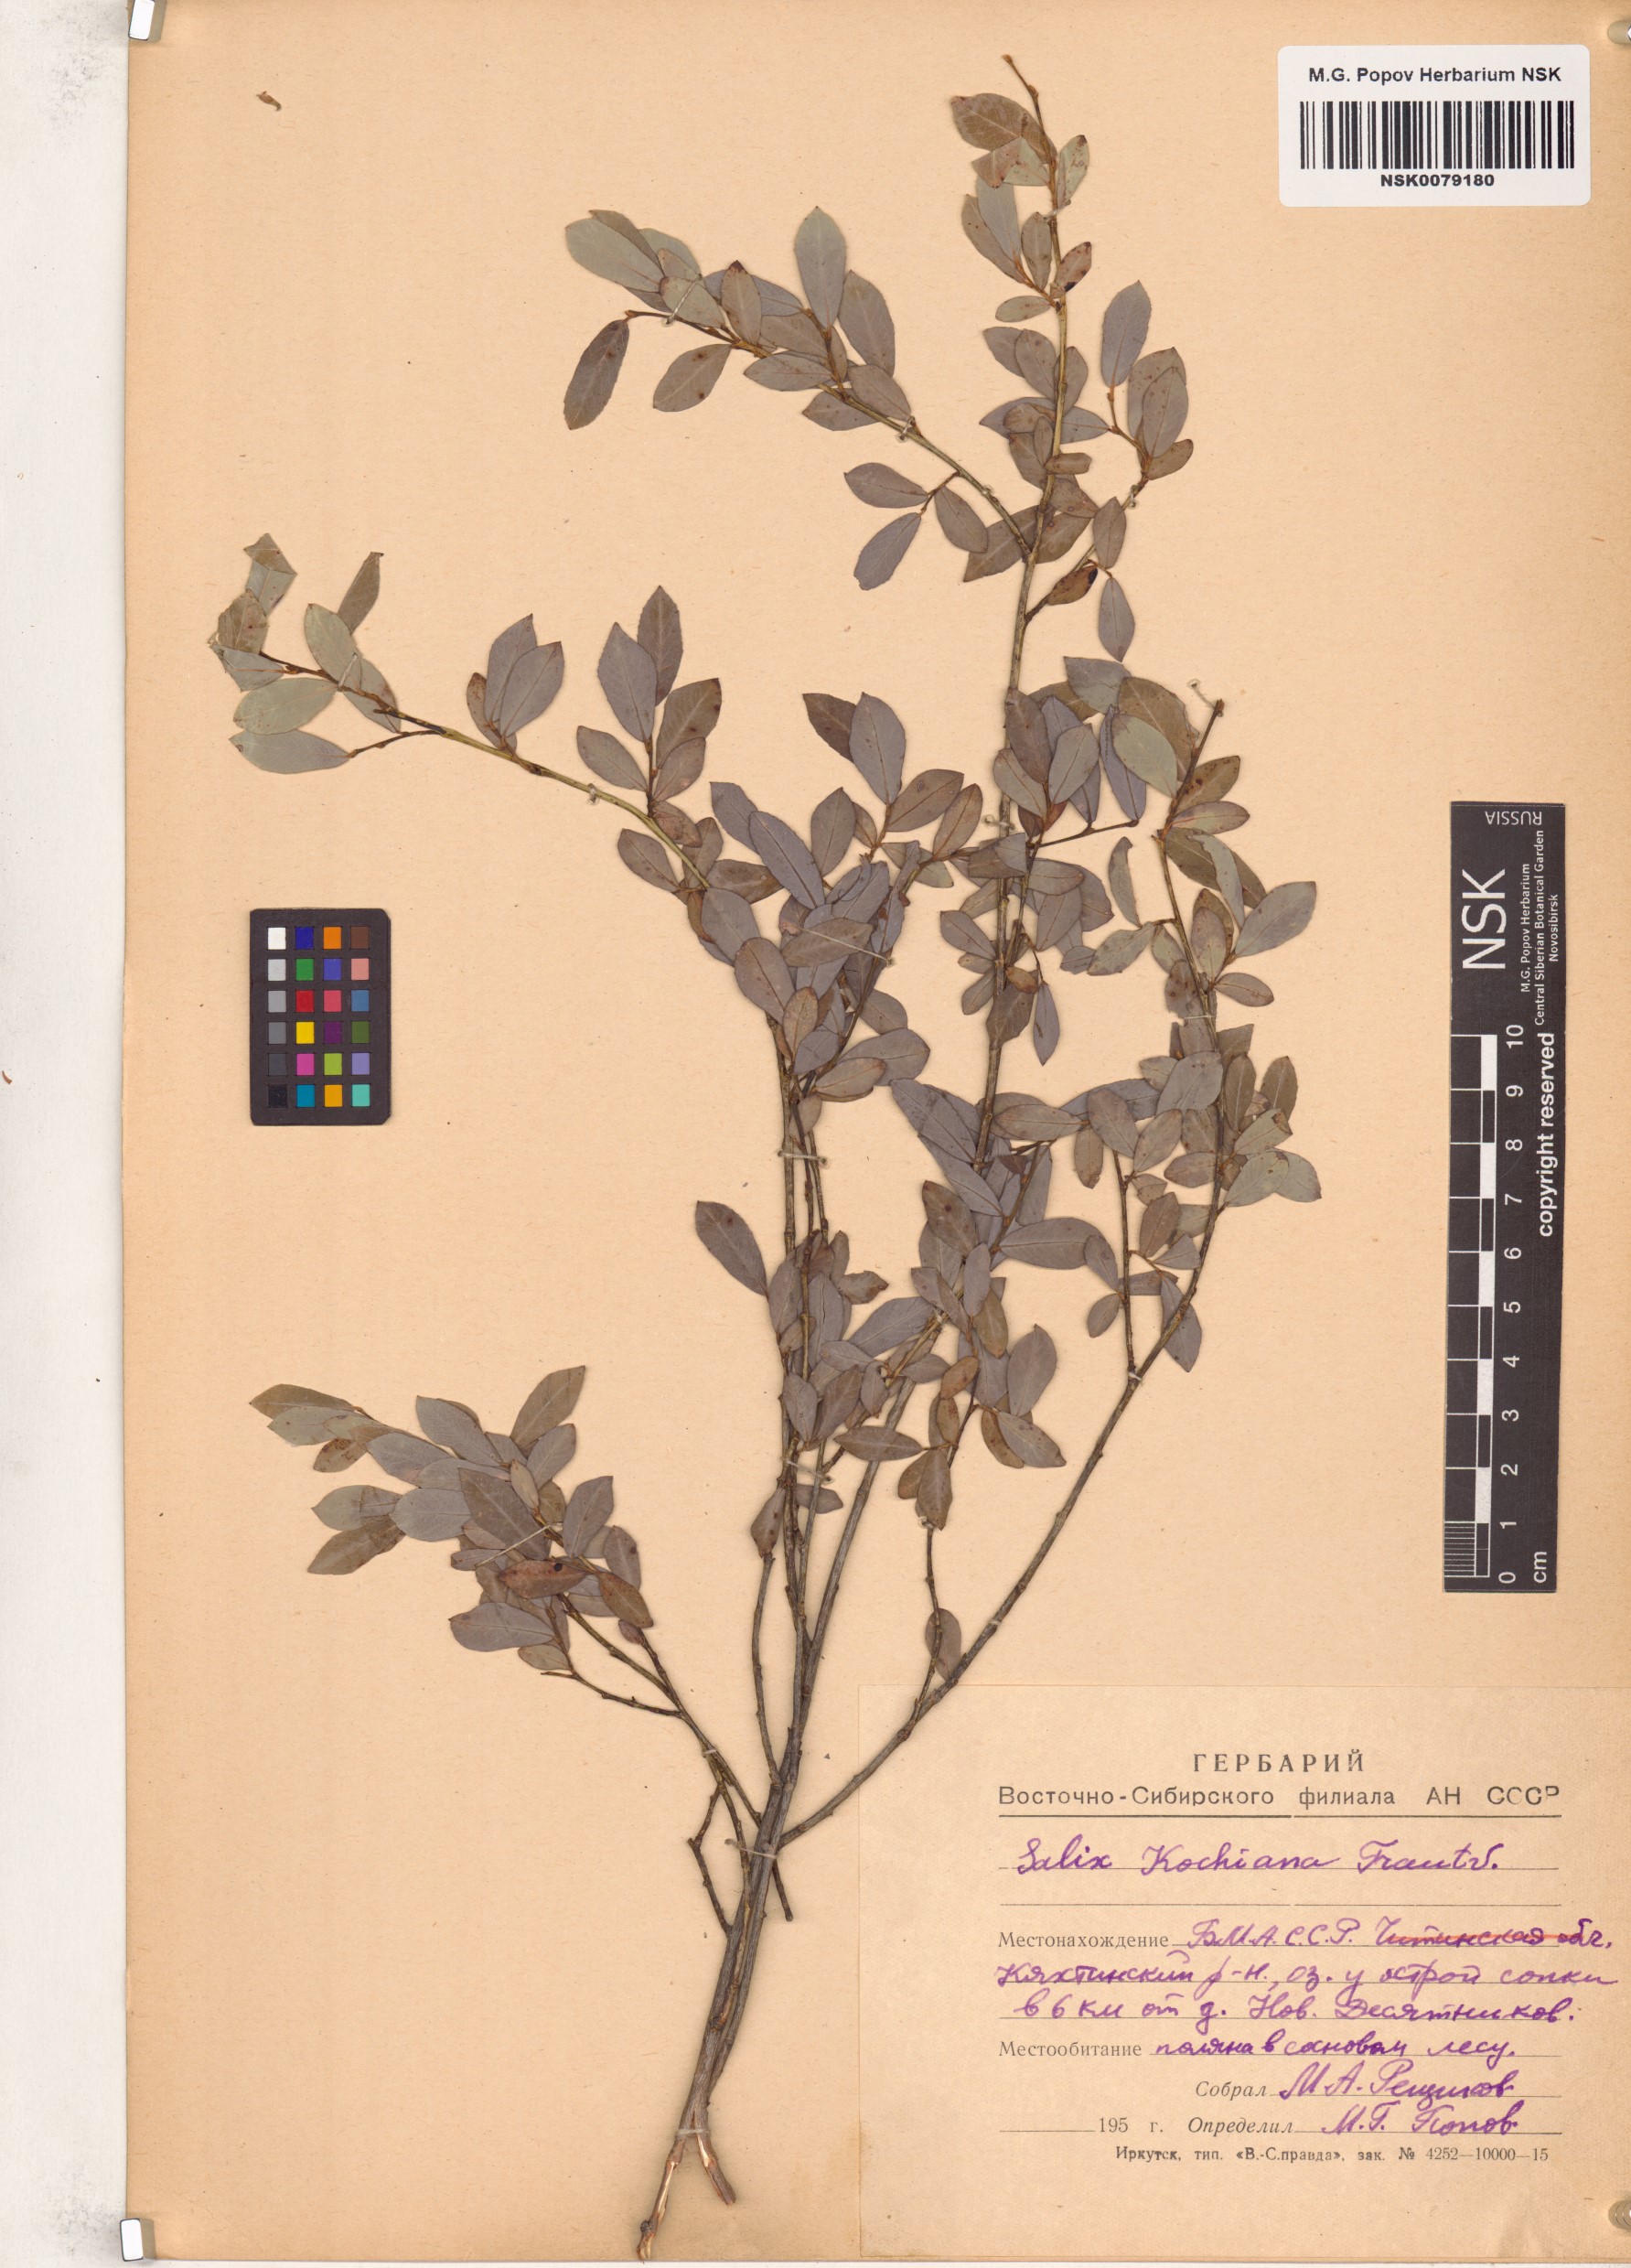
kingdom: Plantae
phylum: Tracheophyta
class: Magnoliopsida
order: Malpighiales
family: Salicaceae
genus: Salix
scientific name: Salix kochiana
